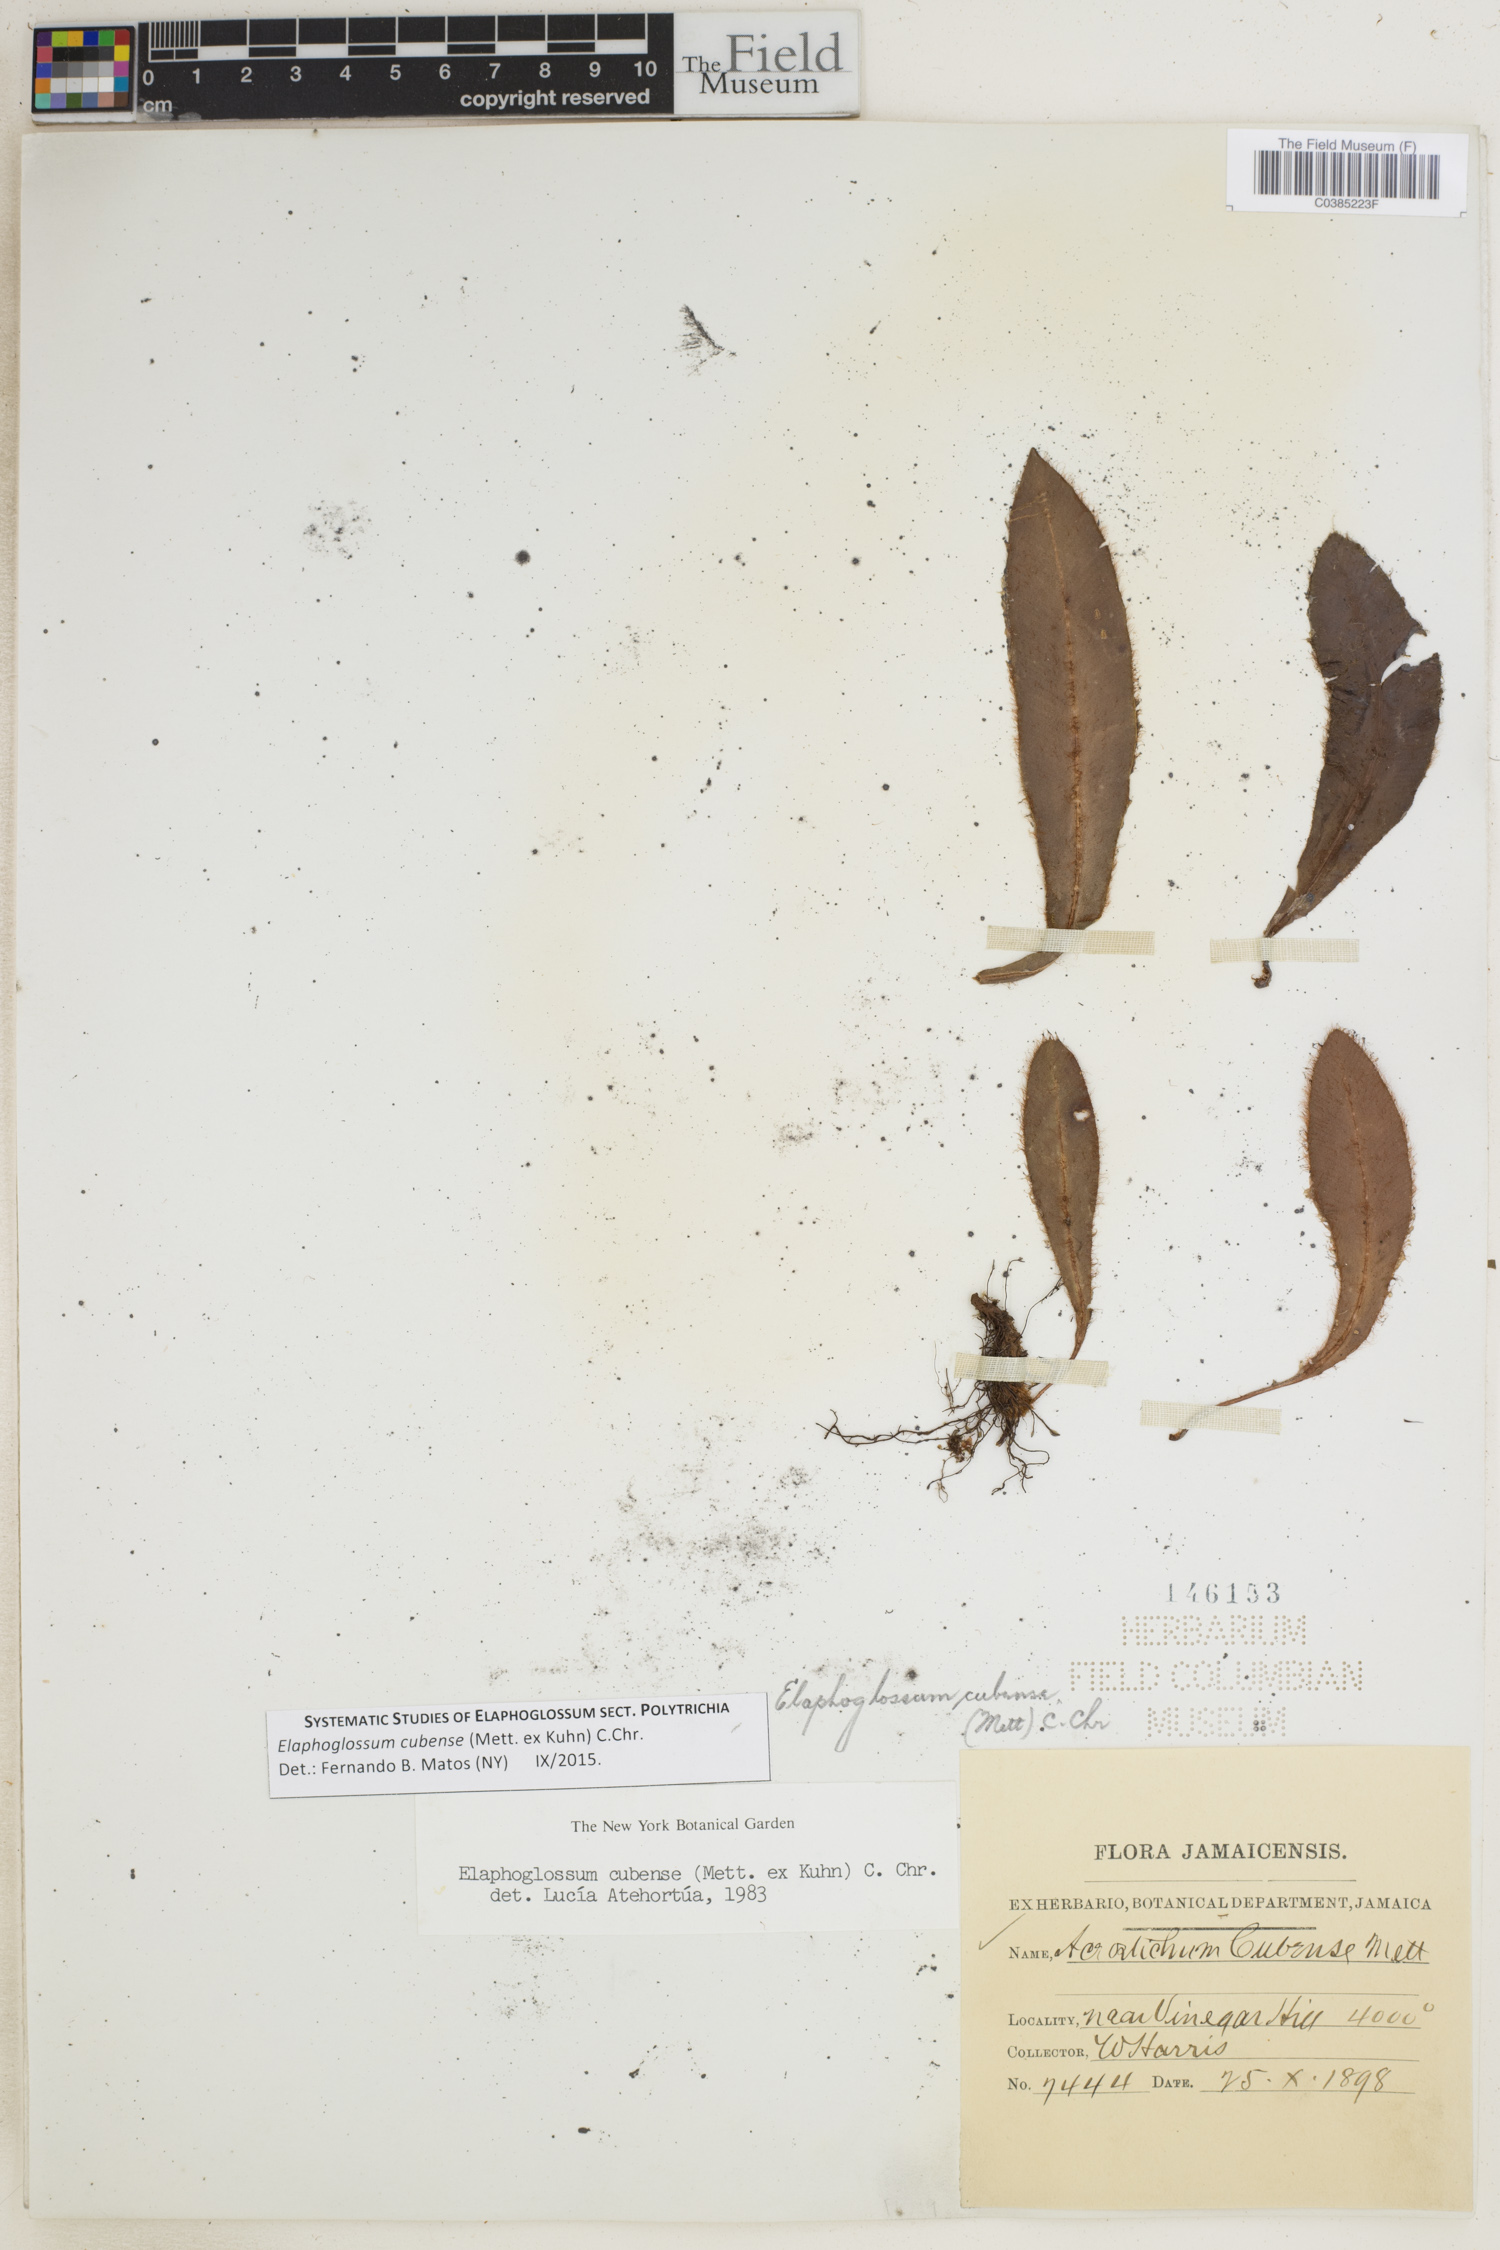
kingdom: Plantae
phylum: Tracheophyta
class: Polypodiopsida
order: Polypodiales
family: Dryopteridaceae
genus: Elaphoglossum
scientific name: Elaphoglossum cubense
